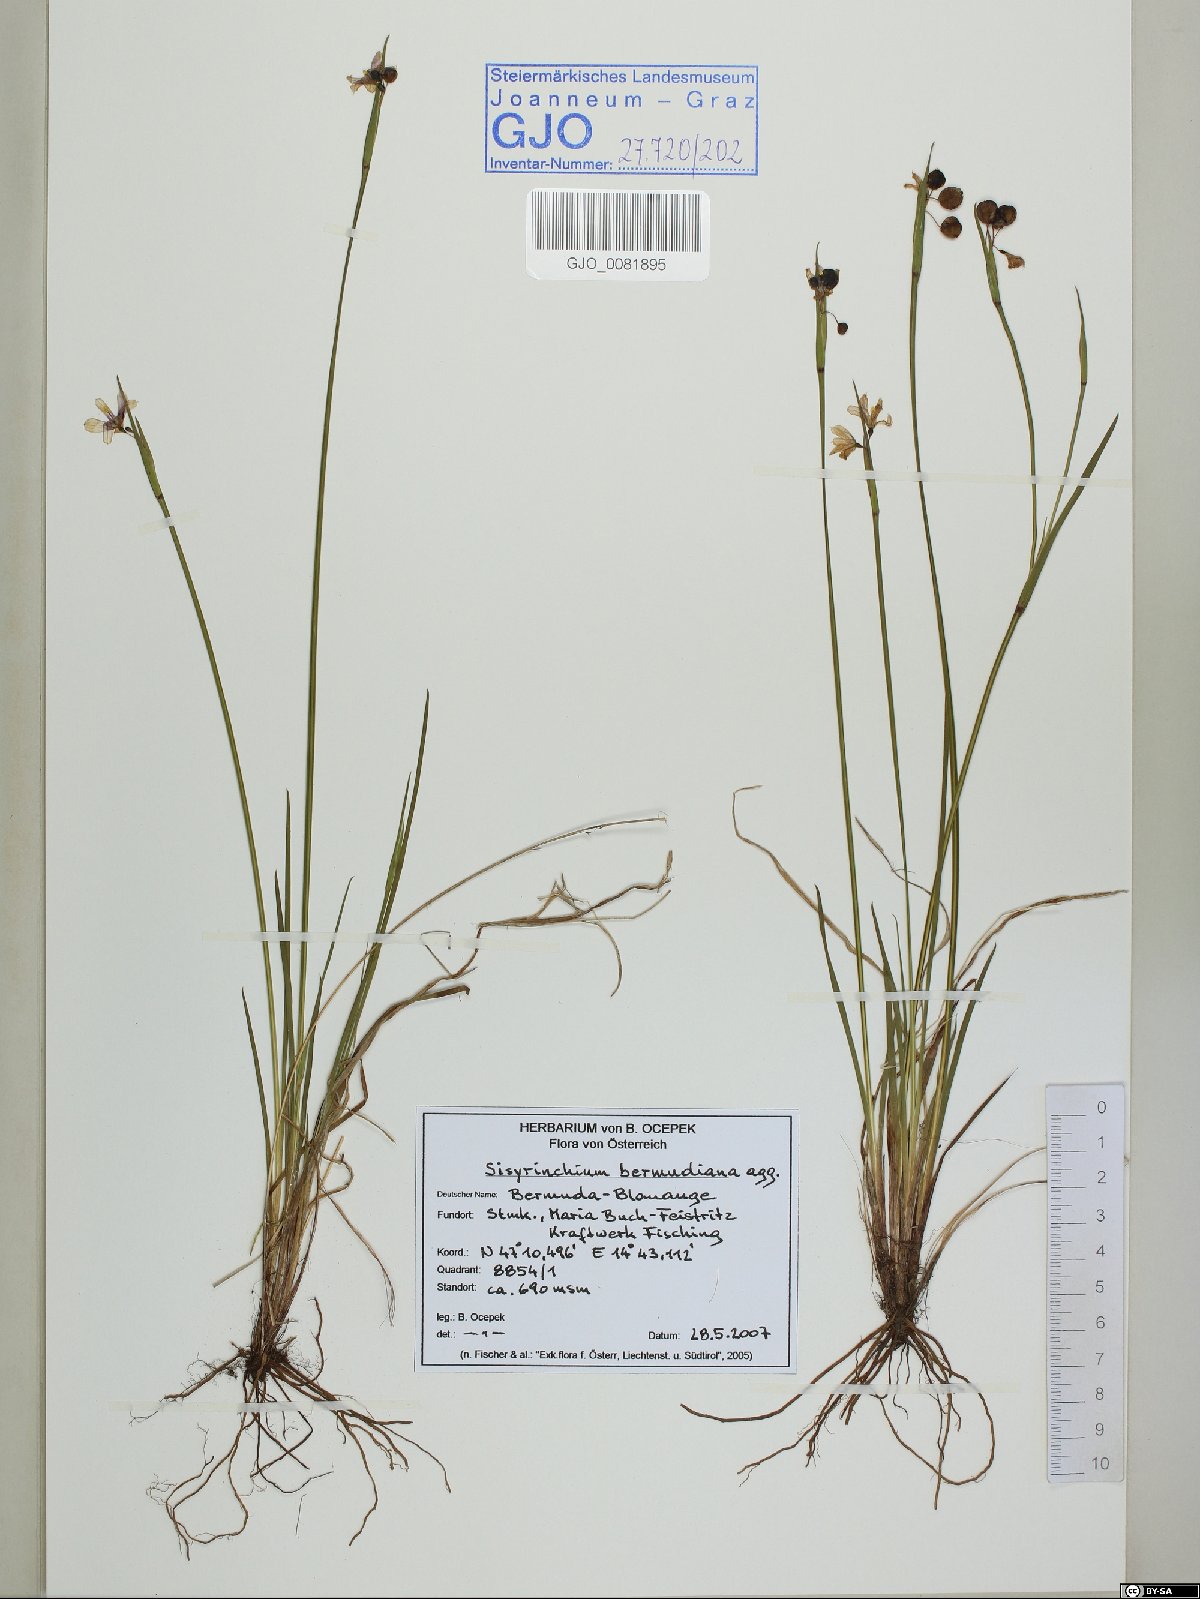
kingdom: Plantae
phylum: Tracheophyta
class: Liliopsida
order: Asparagales
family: Iridaceae
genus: Sisyrinchium
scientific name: Sisyrinchium bermudiana
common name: Blue-eyed-grass
